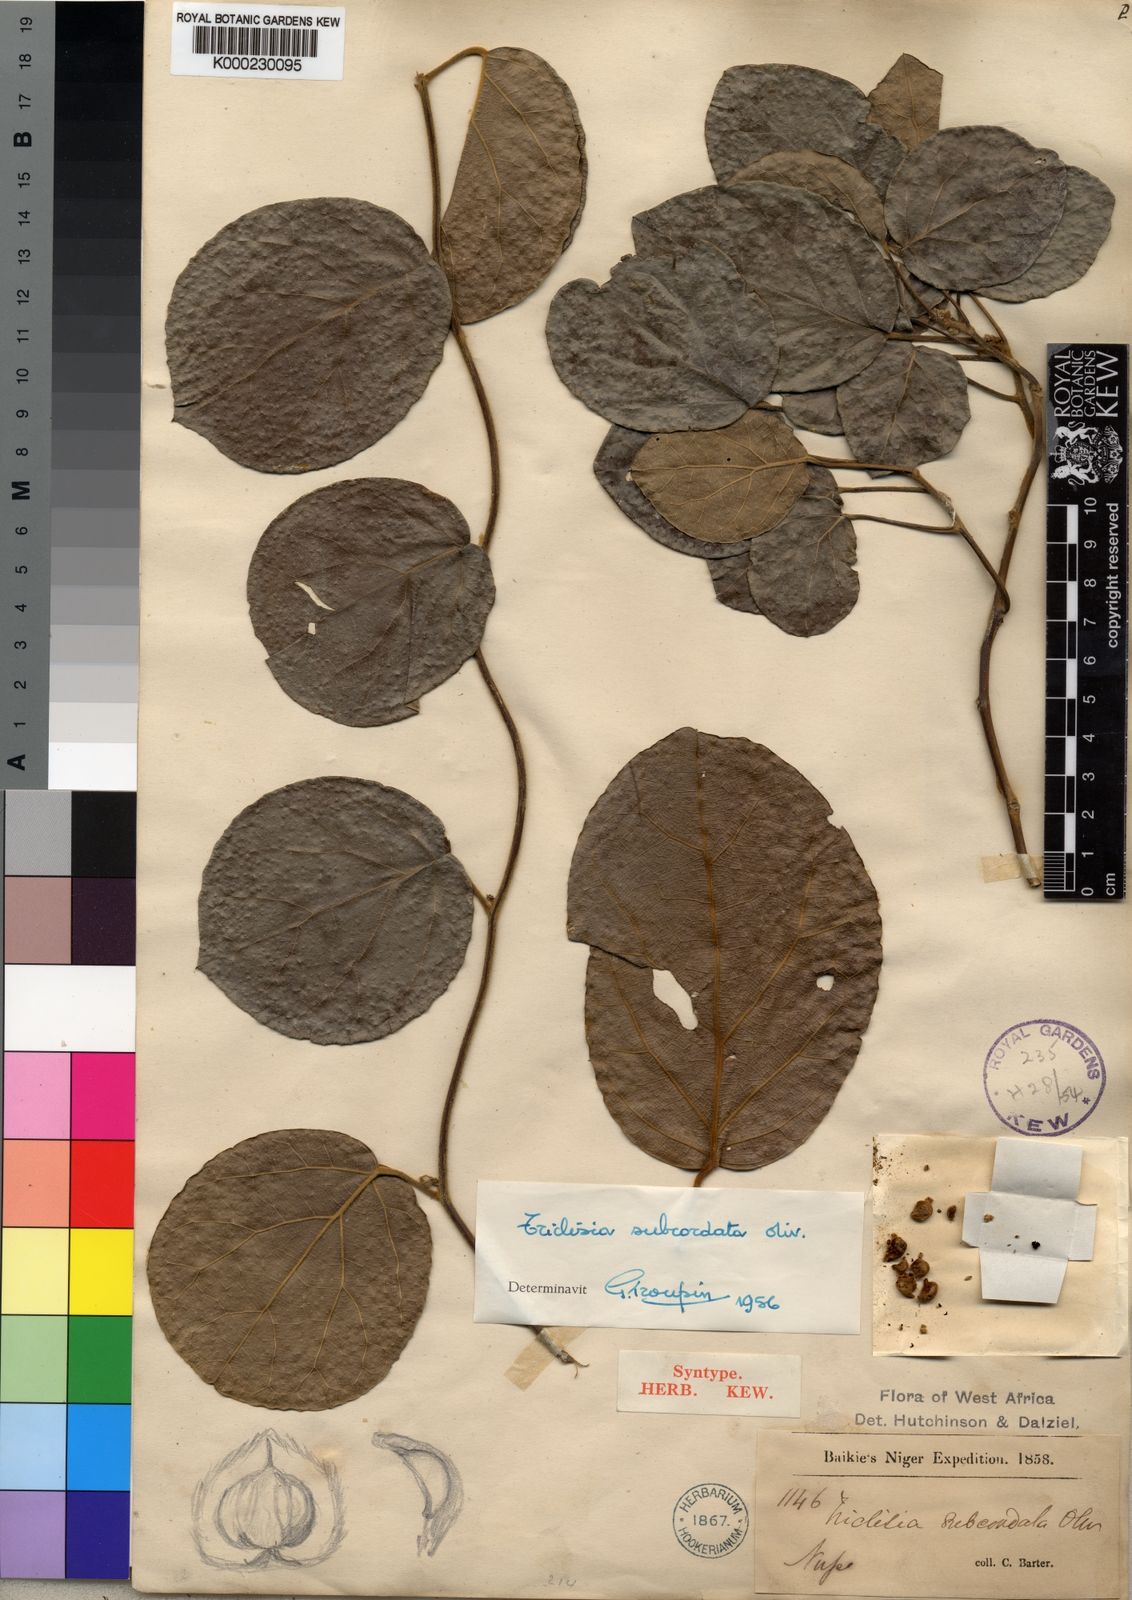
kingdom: Plantae
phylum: Tracheophyta
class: Magnoliopsida
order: Ranunculales
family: Menispermaceae
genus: Triclisia
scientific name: Triclisia subcordata
